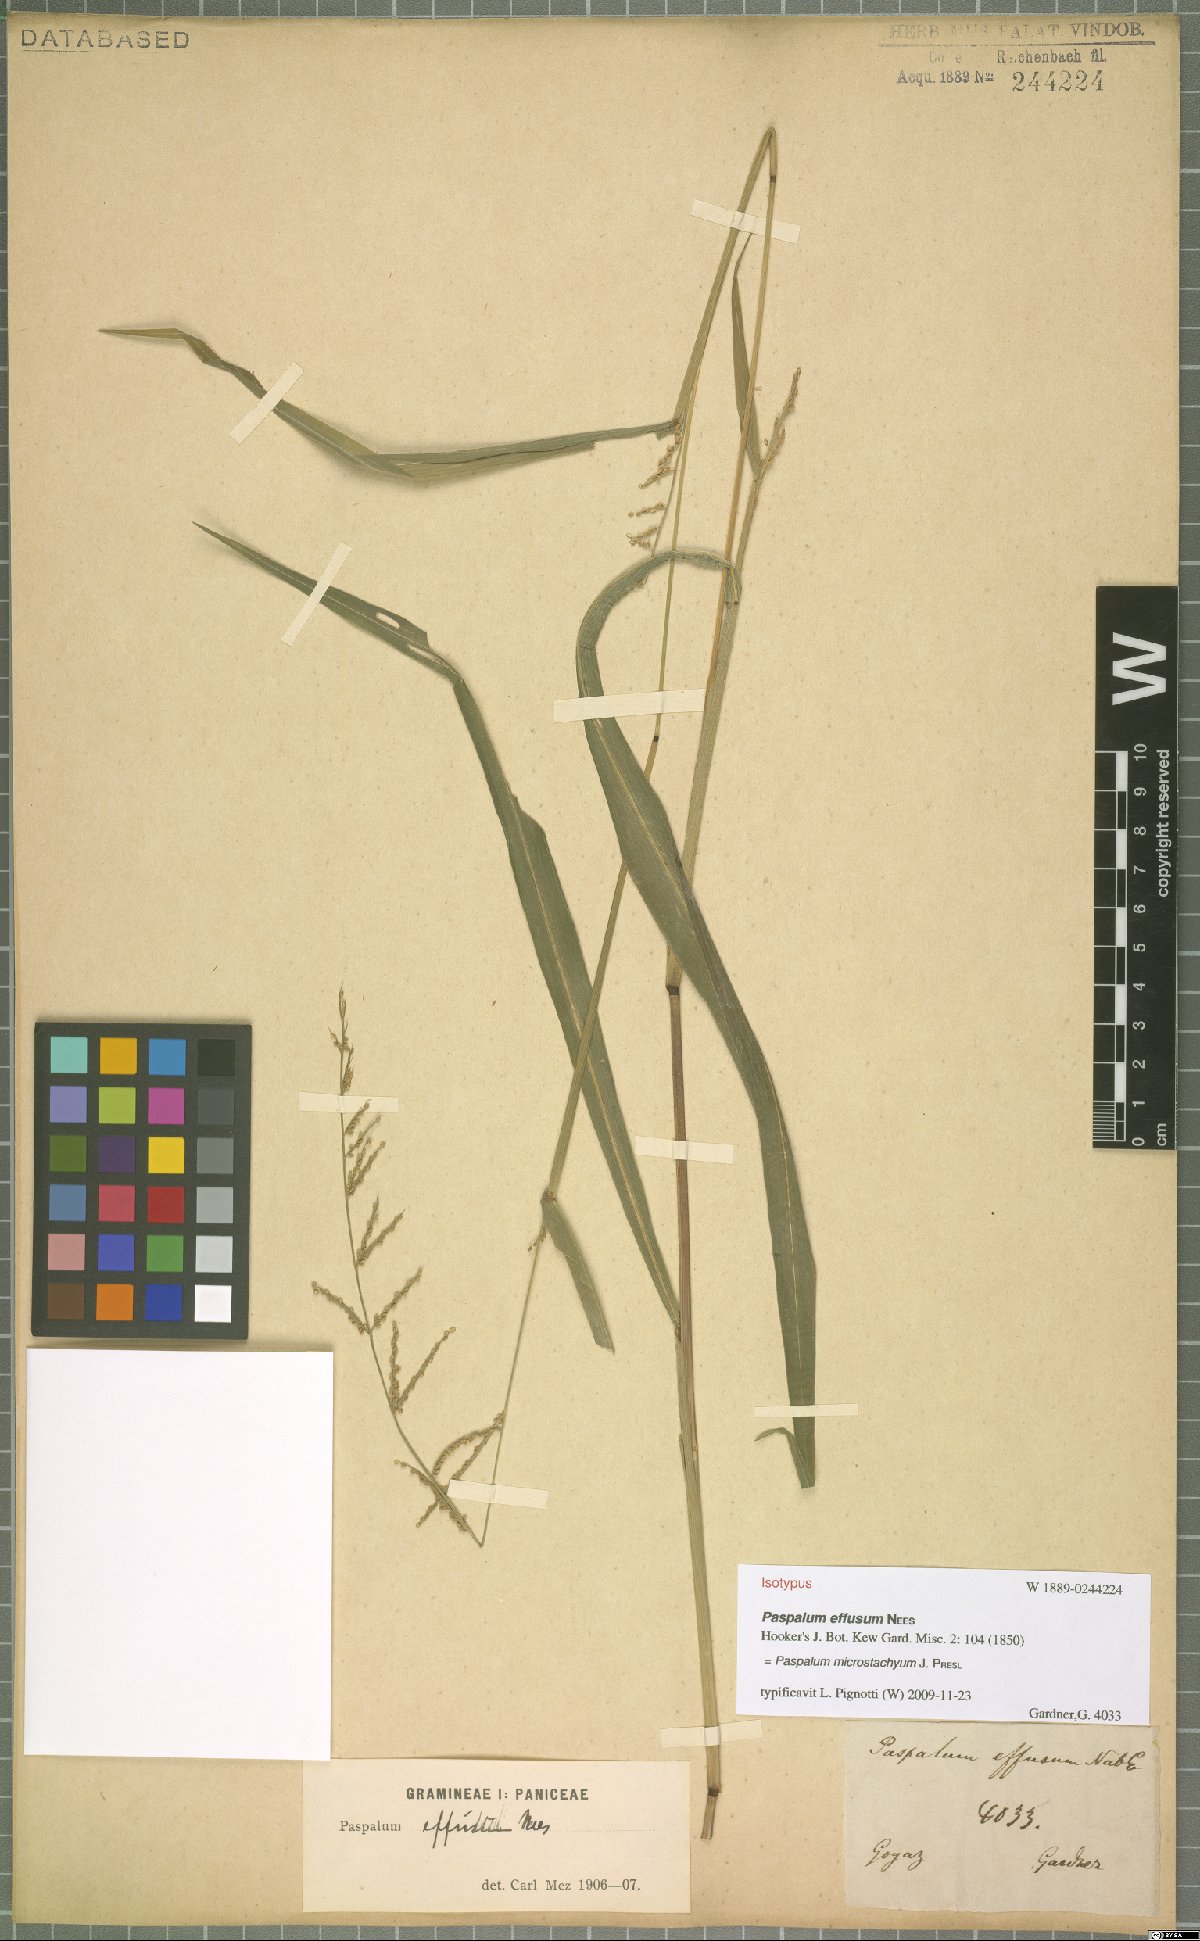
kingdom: Plantae
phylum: Tracheophyta
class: Liliopsida
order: Poales
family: Poaceae
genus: Paspalum
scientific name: Paspalum microstachyum
